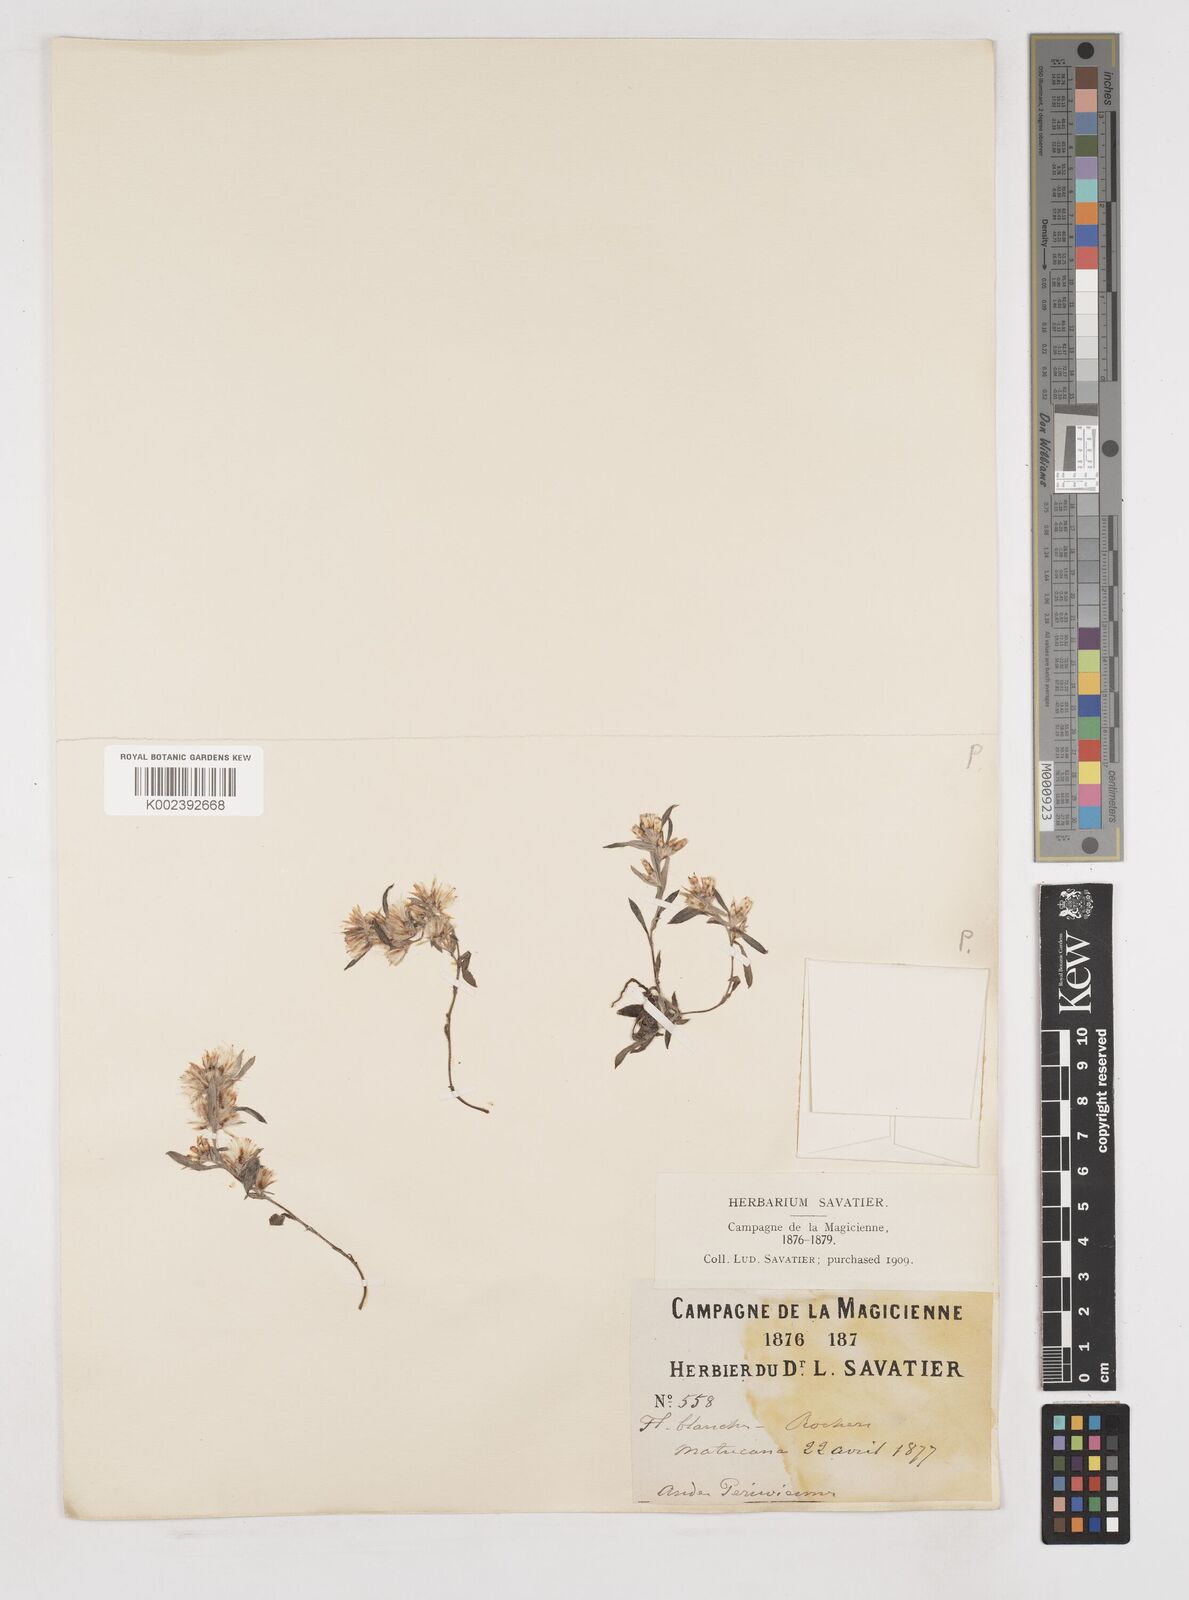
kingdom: Plantae
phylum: Tracheophyta
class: Magnoliopsida
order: Asterales
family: Asteraceae
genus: Gnaphalium
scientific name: Gnaphalium
